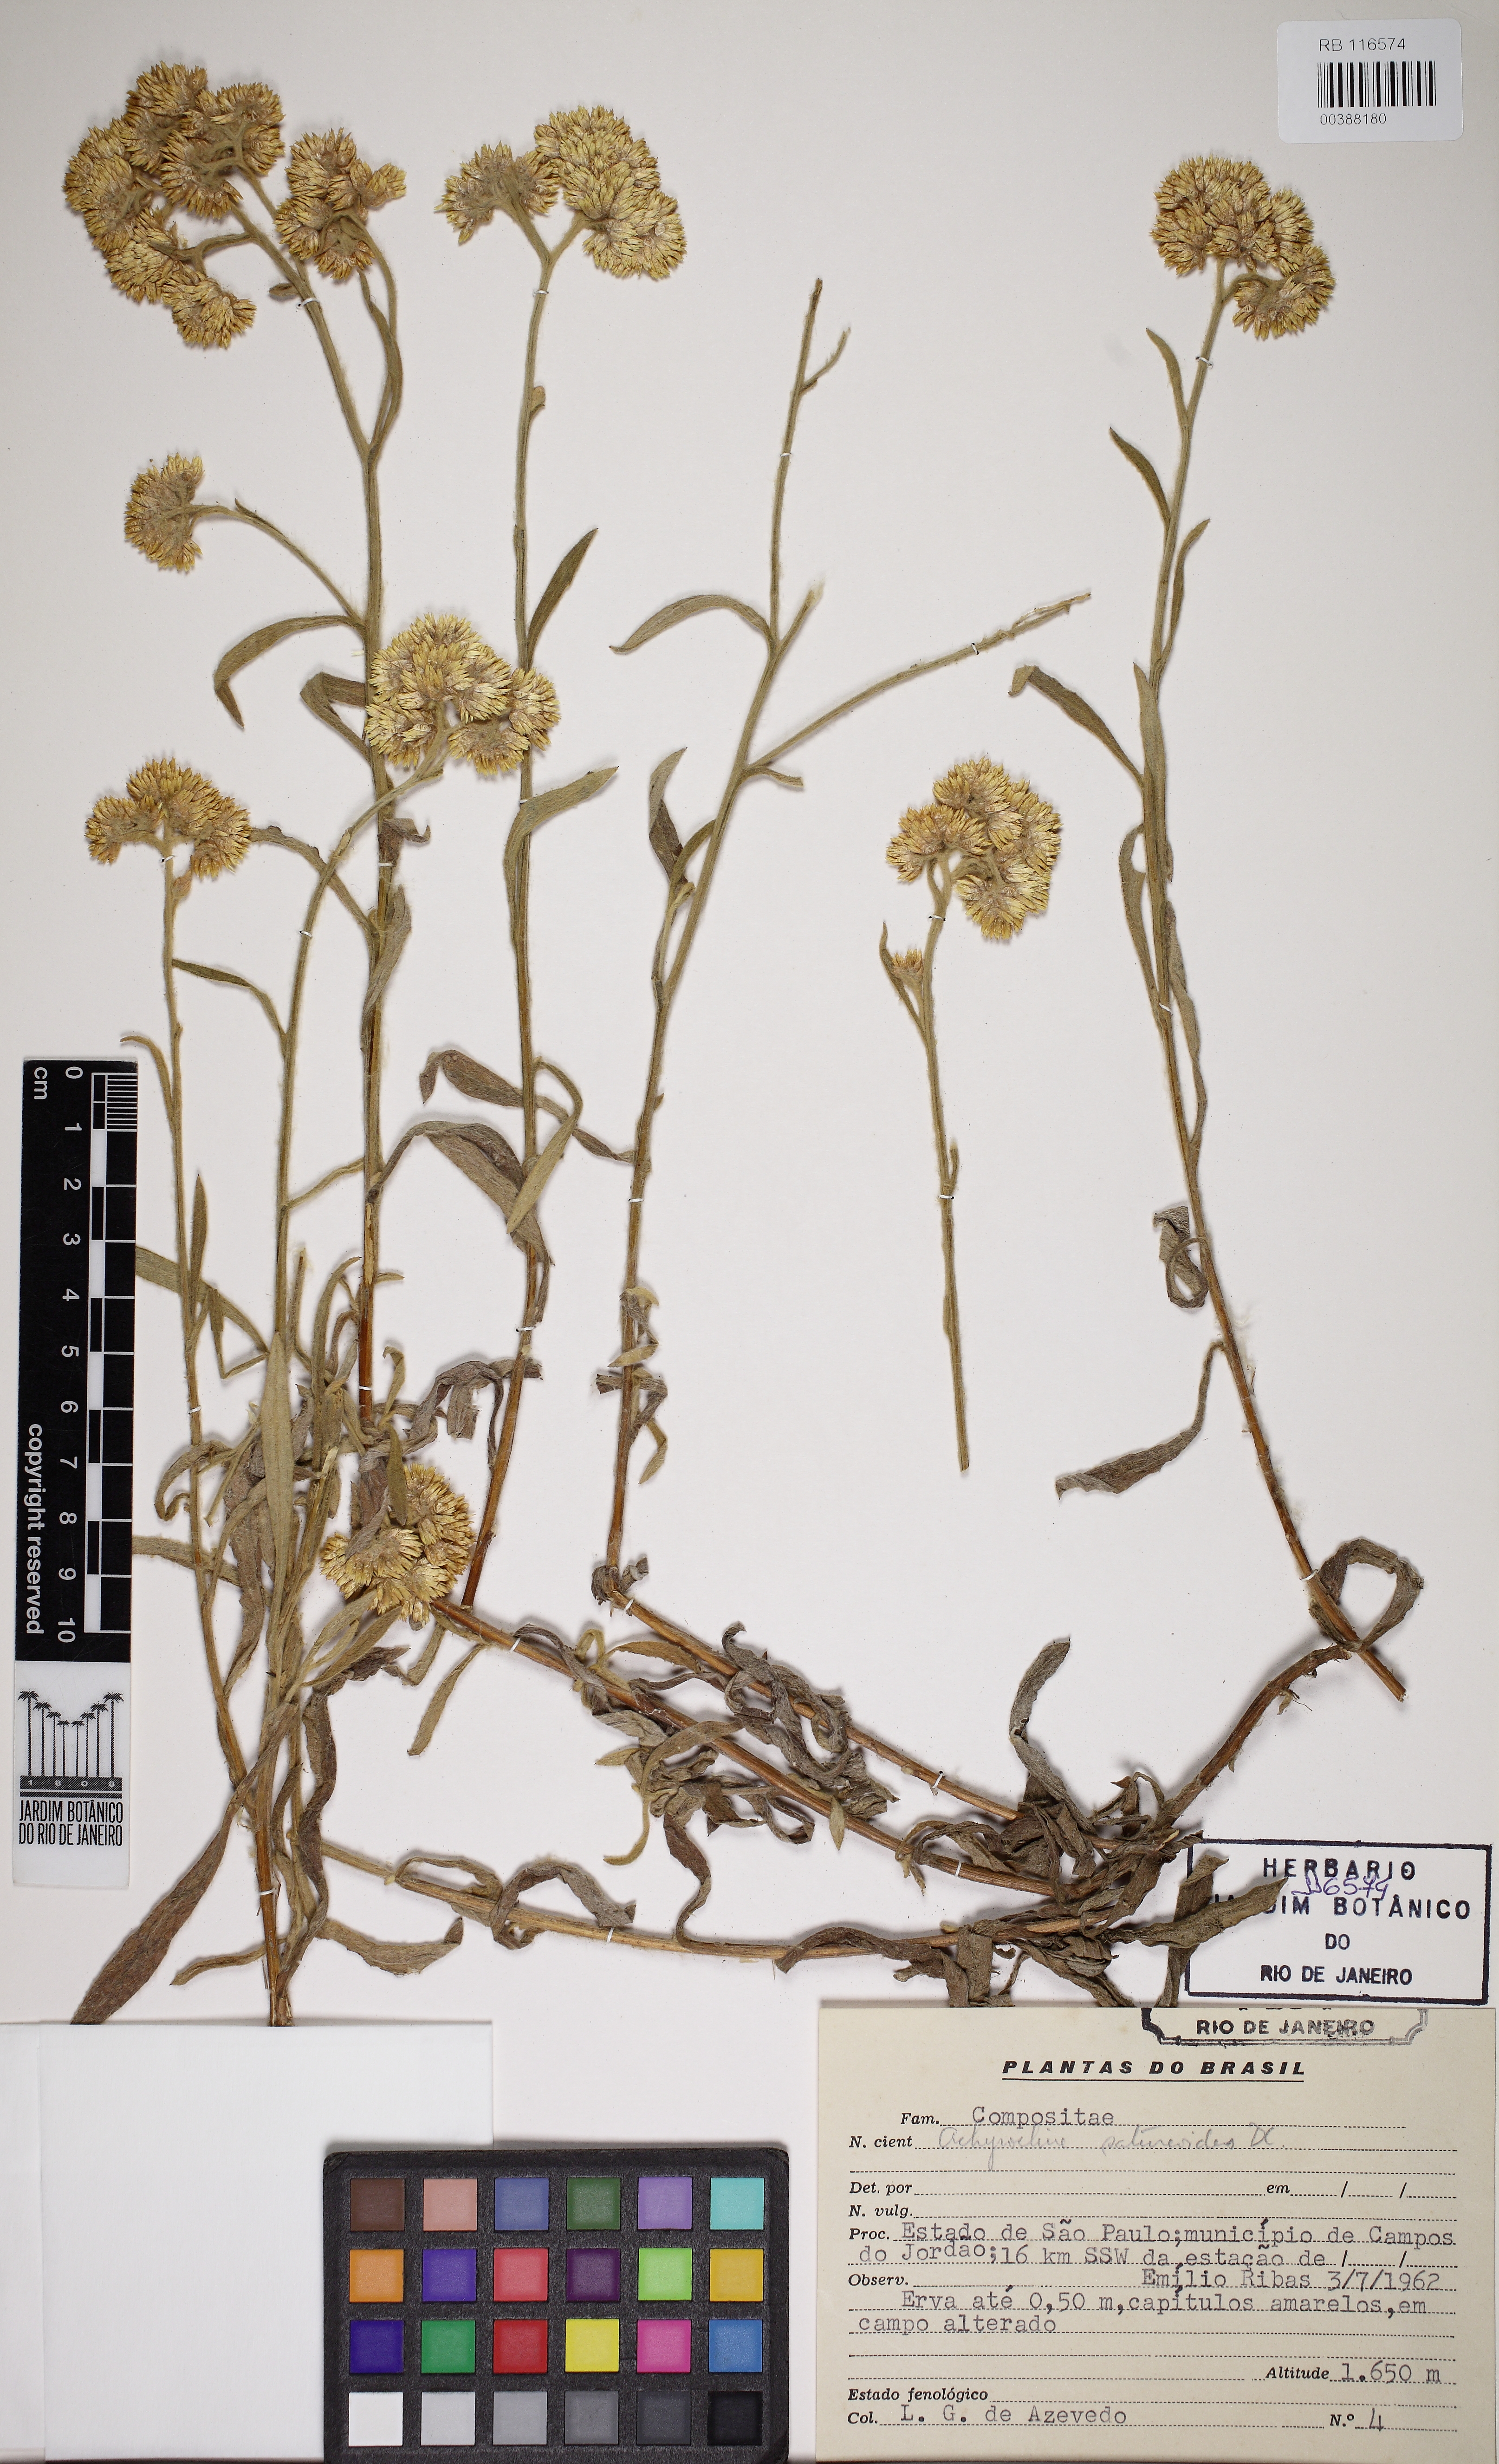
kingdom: Plantae
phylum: Tracheophyta
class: Magnoliopsida
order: Asterales
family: Asteraceae
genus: Achyrocline
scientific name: Achyrocline satureioides
